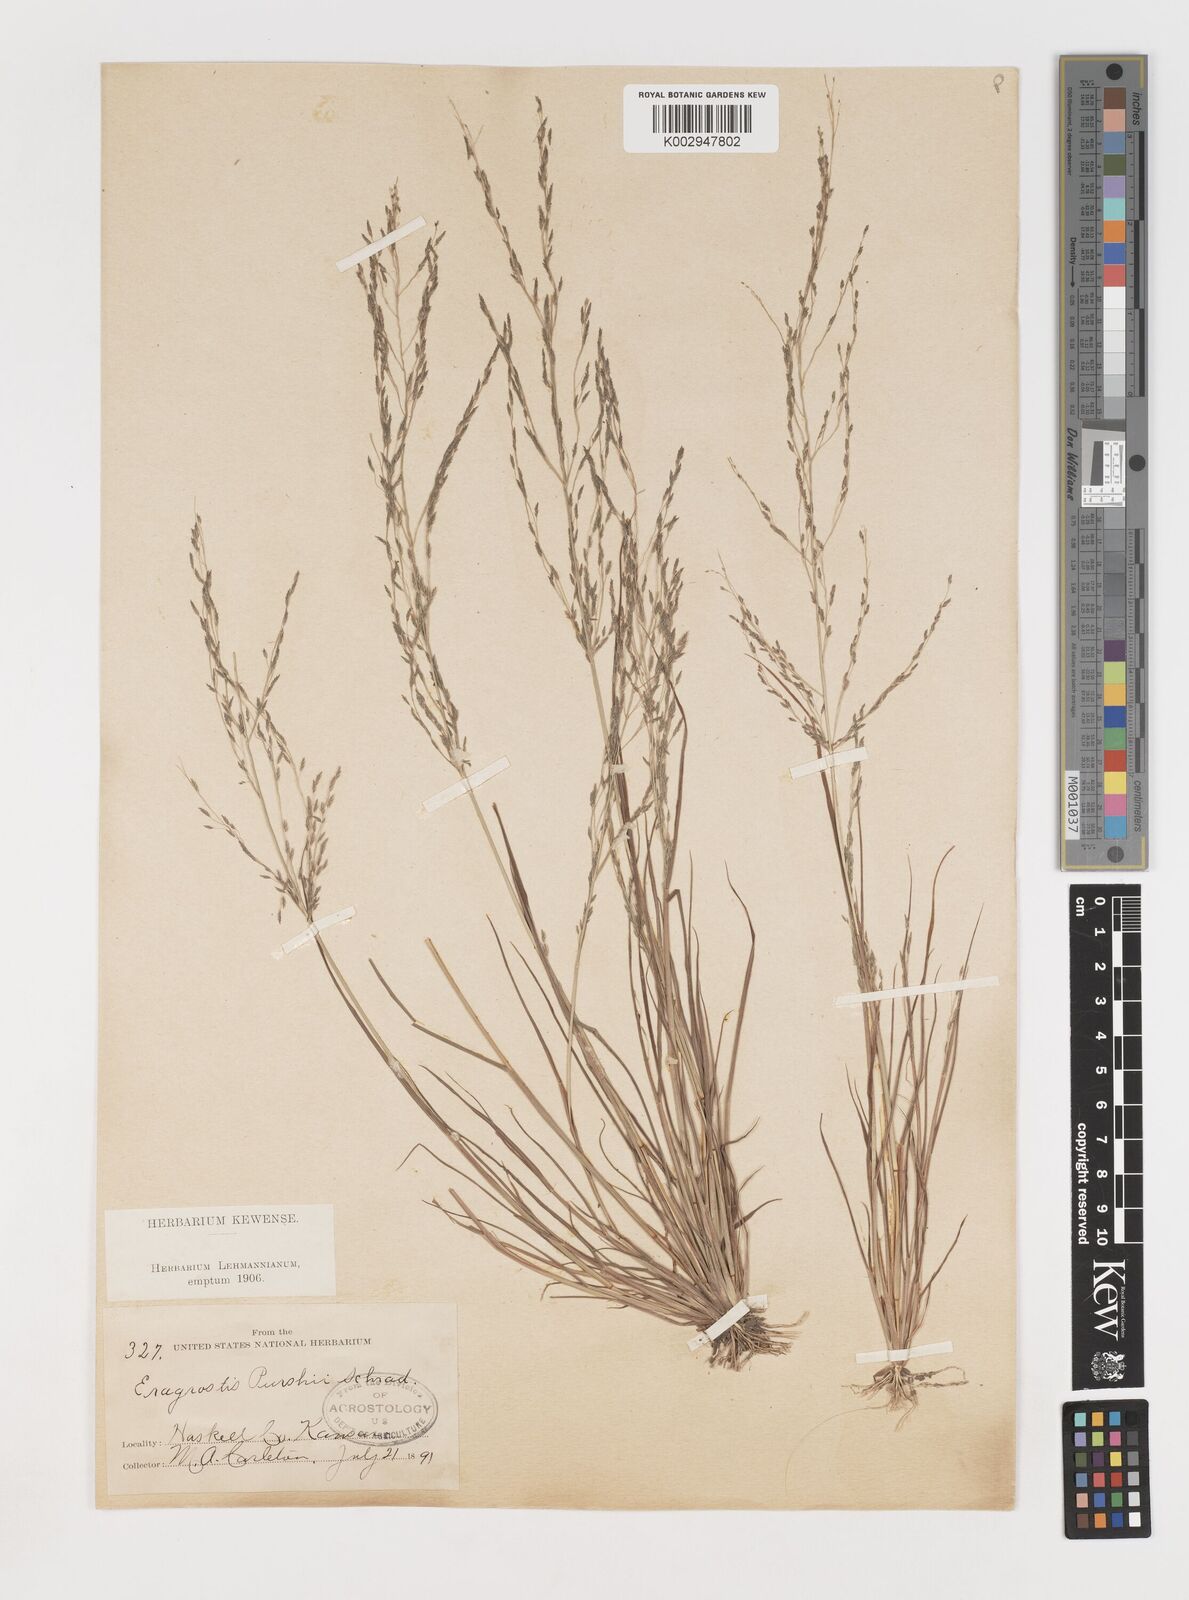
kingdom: Plantae
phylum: Tracheophyta
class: Liliopsida
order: Poales
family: Poaceae
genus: Eragrostis
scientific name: Eragrostis pectinacea
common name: Tufted lovegrass
